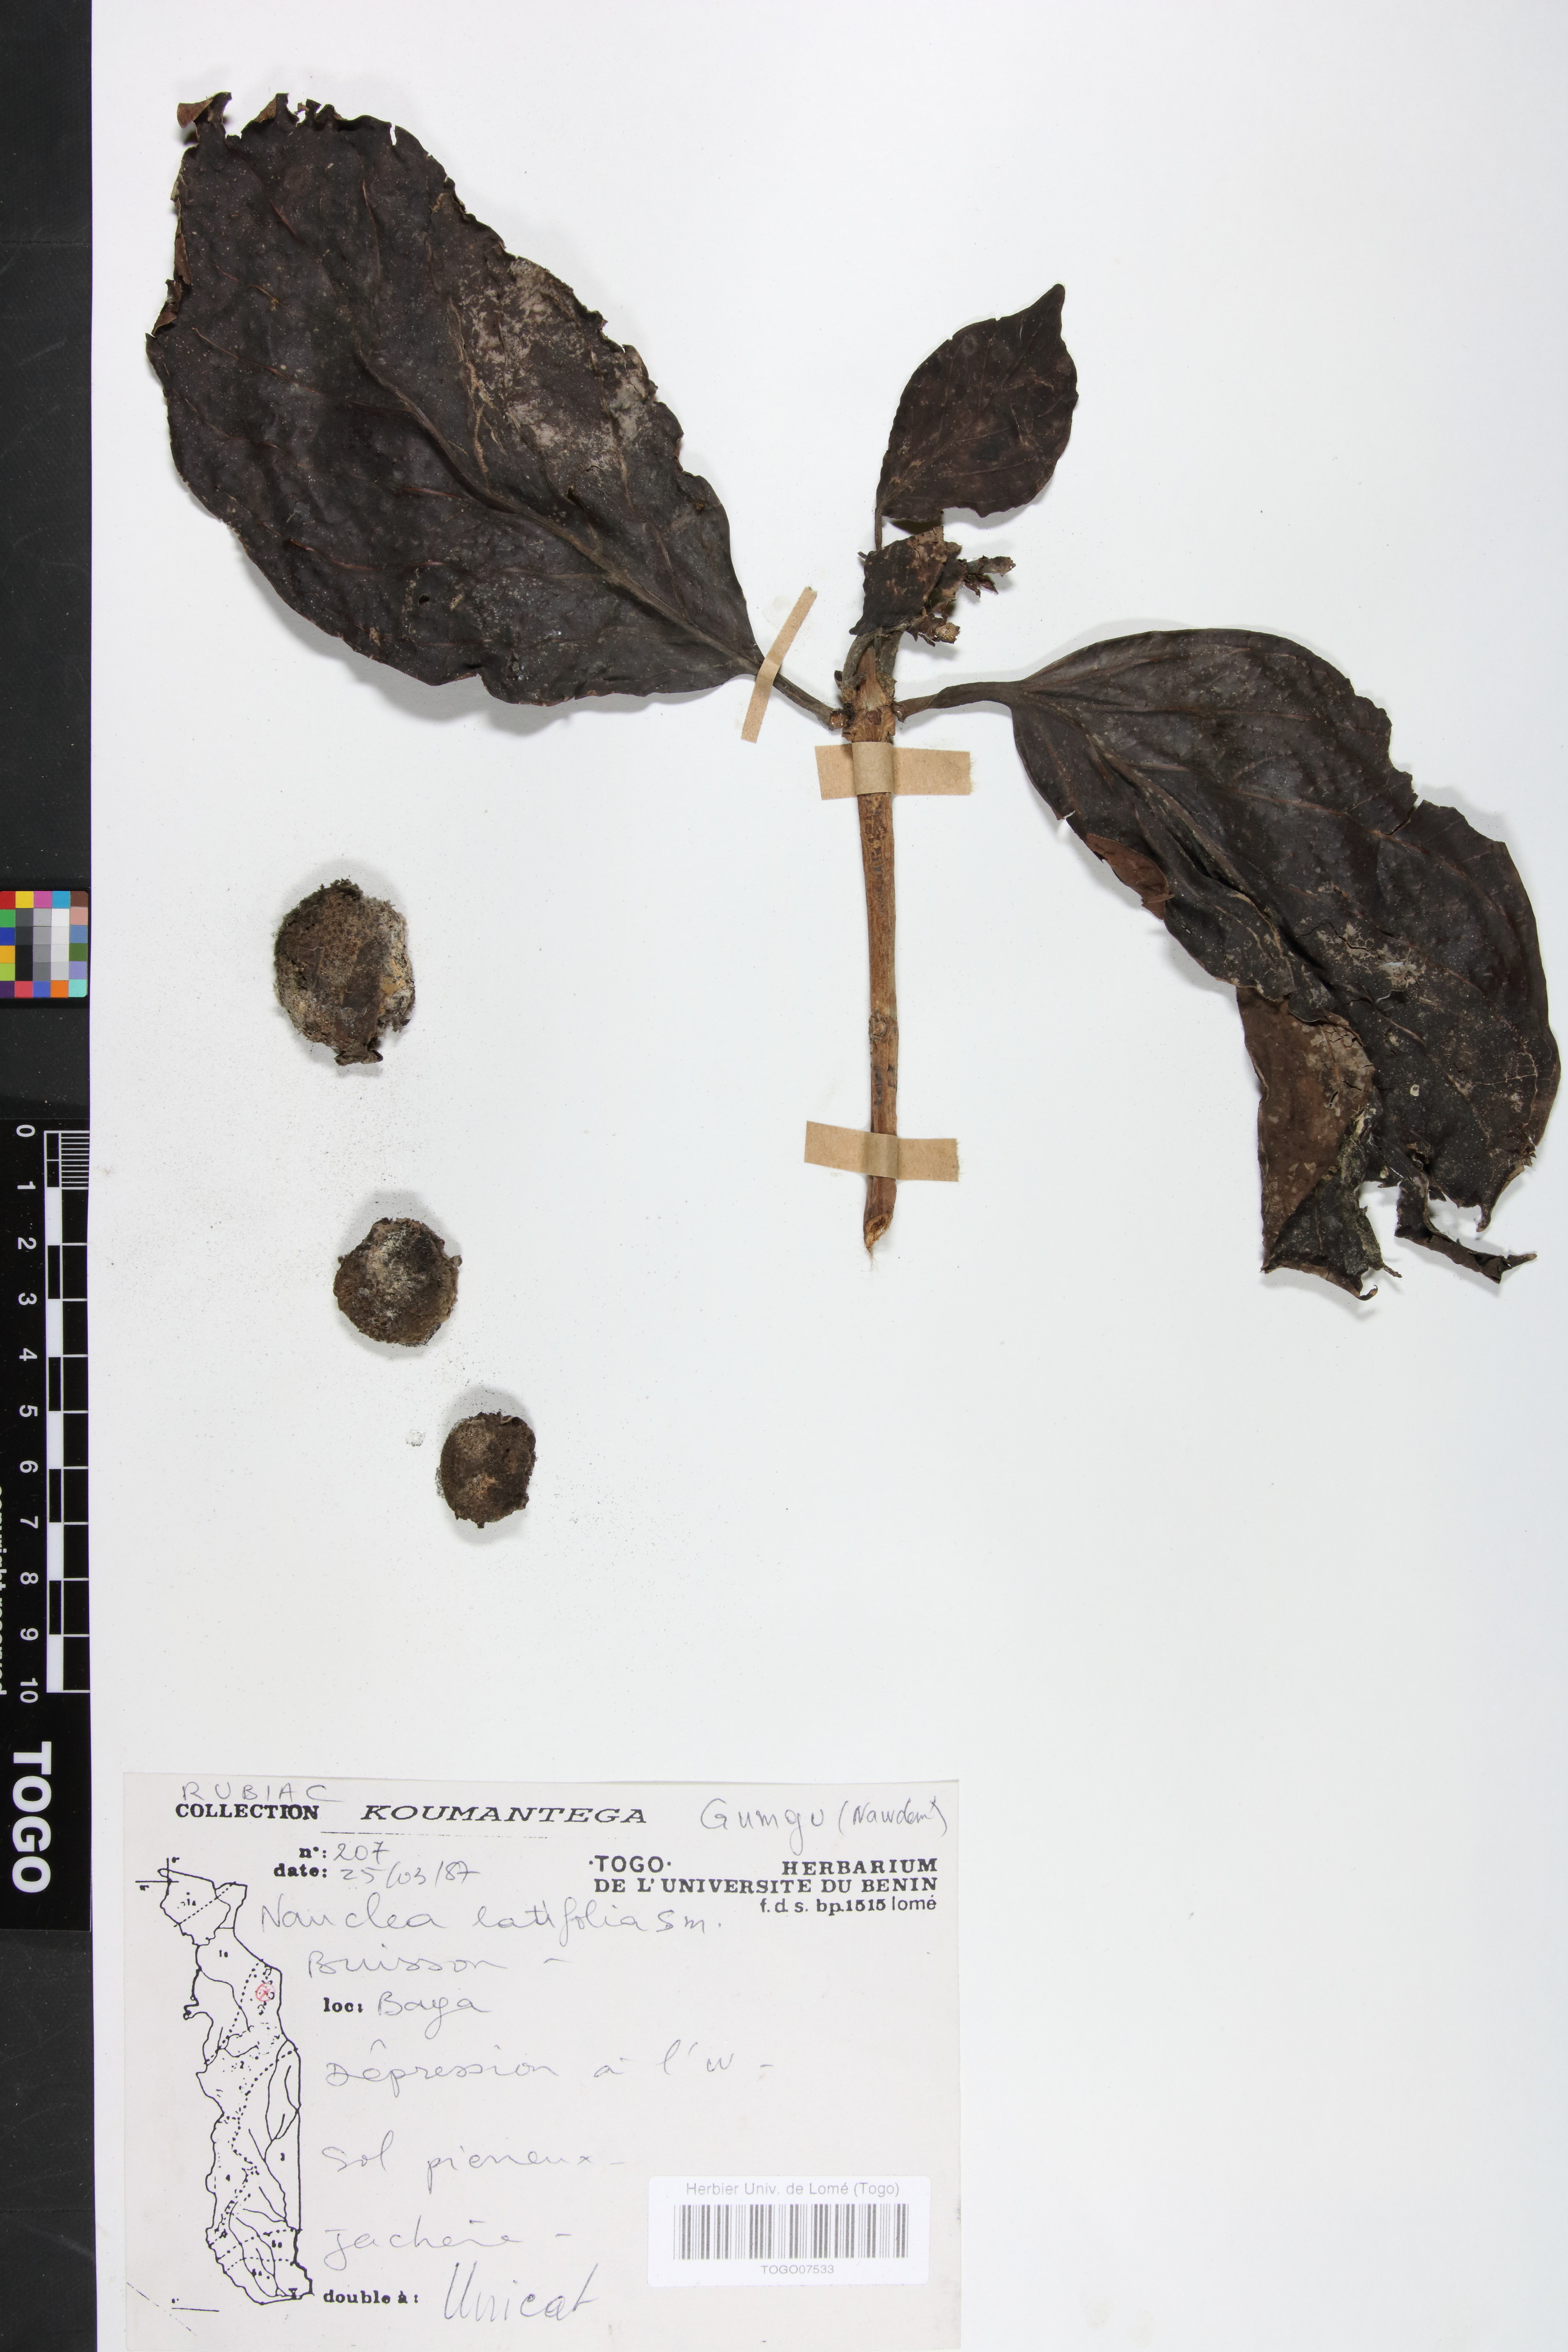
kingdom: Plantae
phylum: Tracheophyta
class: Magnoliopsida
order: Gentianales
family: Rubiaceae
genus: Nauclea
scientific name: Nauclea latifolia
